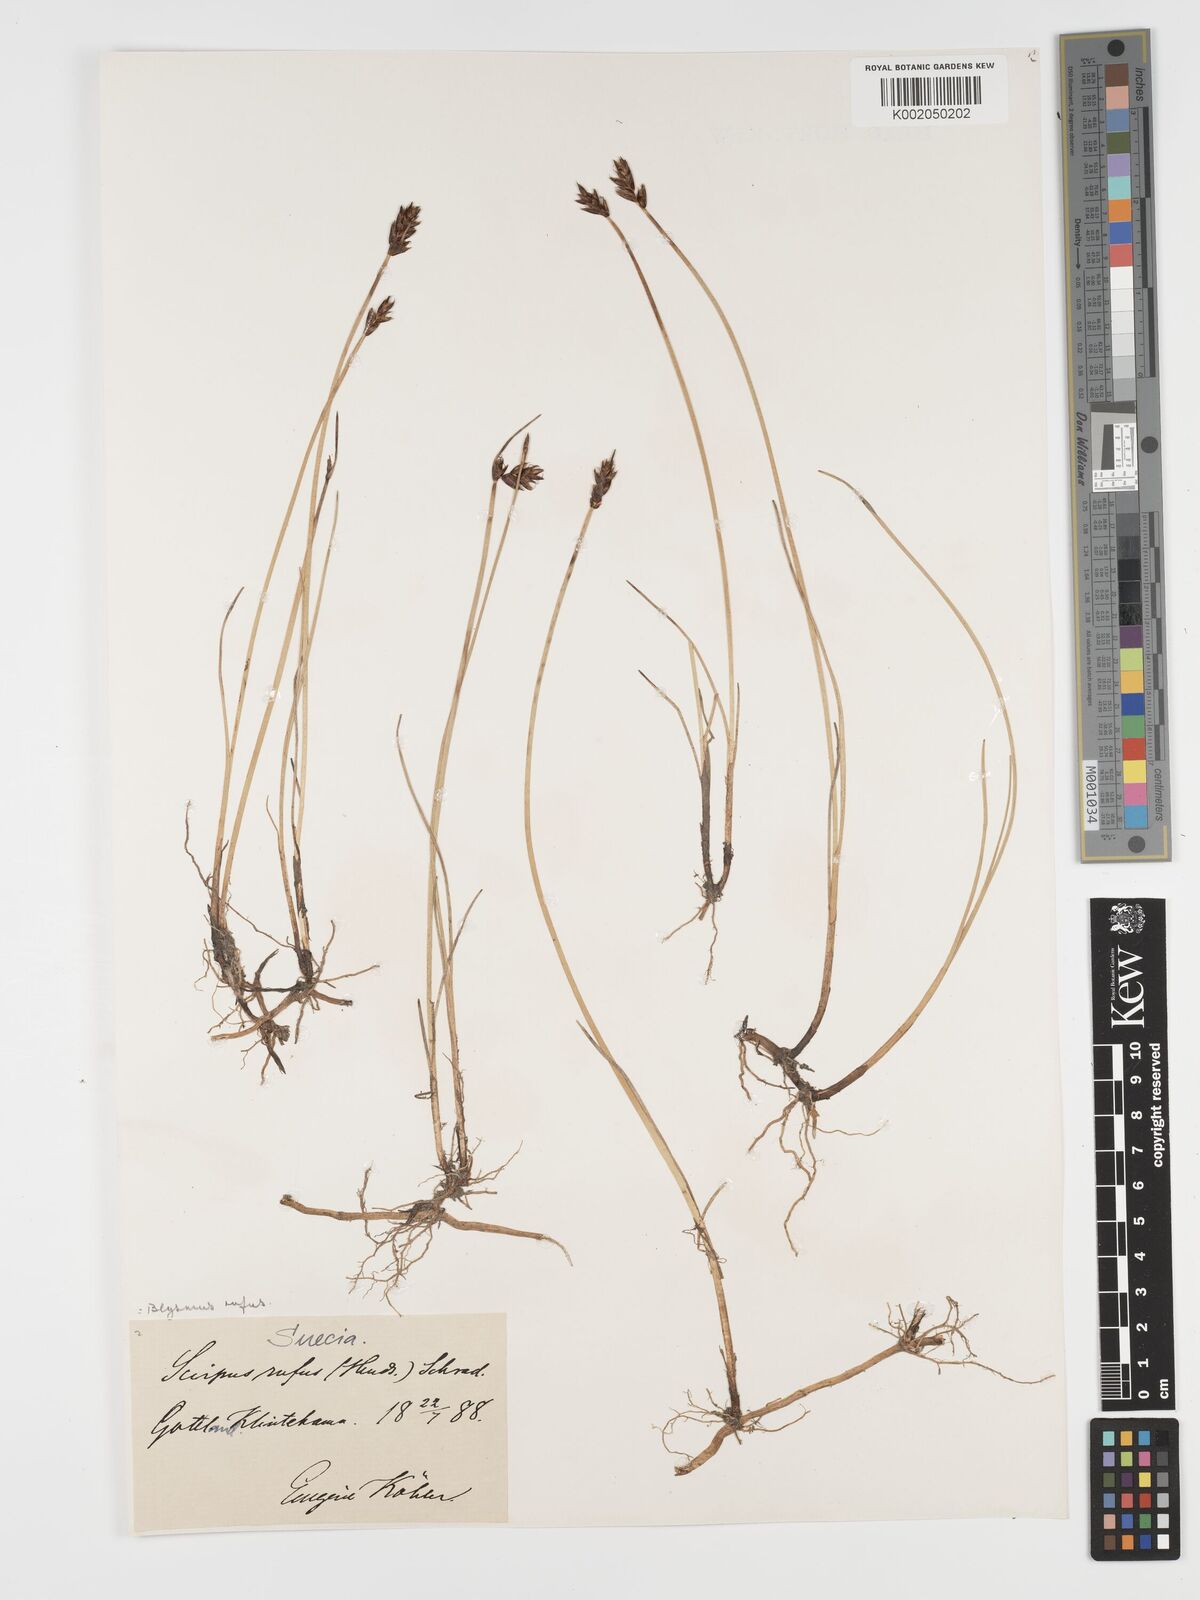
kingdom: Plantae
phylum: Tracheophyta
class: Liliopsida
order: Poales
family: Cyperaceae
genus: Blysmus
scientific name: Blysmus rufus
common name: Saltmarsh flat-sedge
